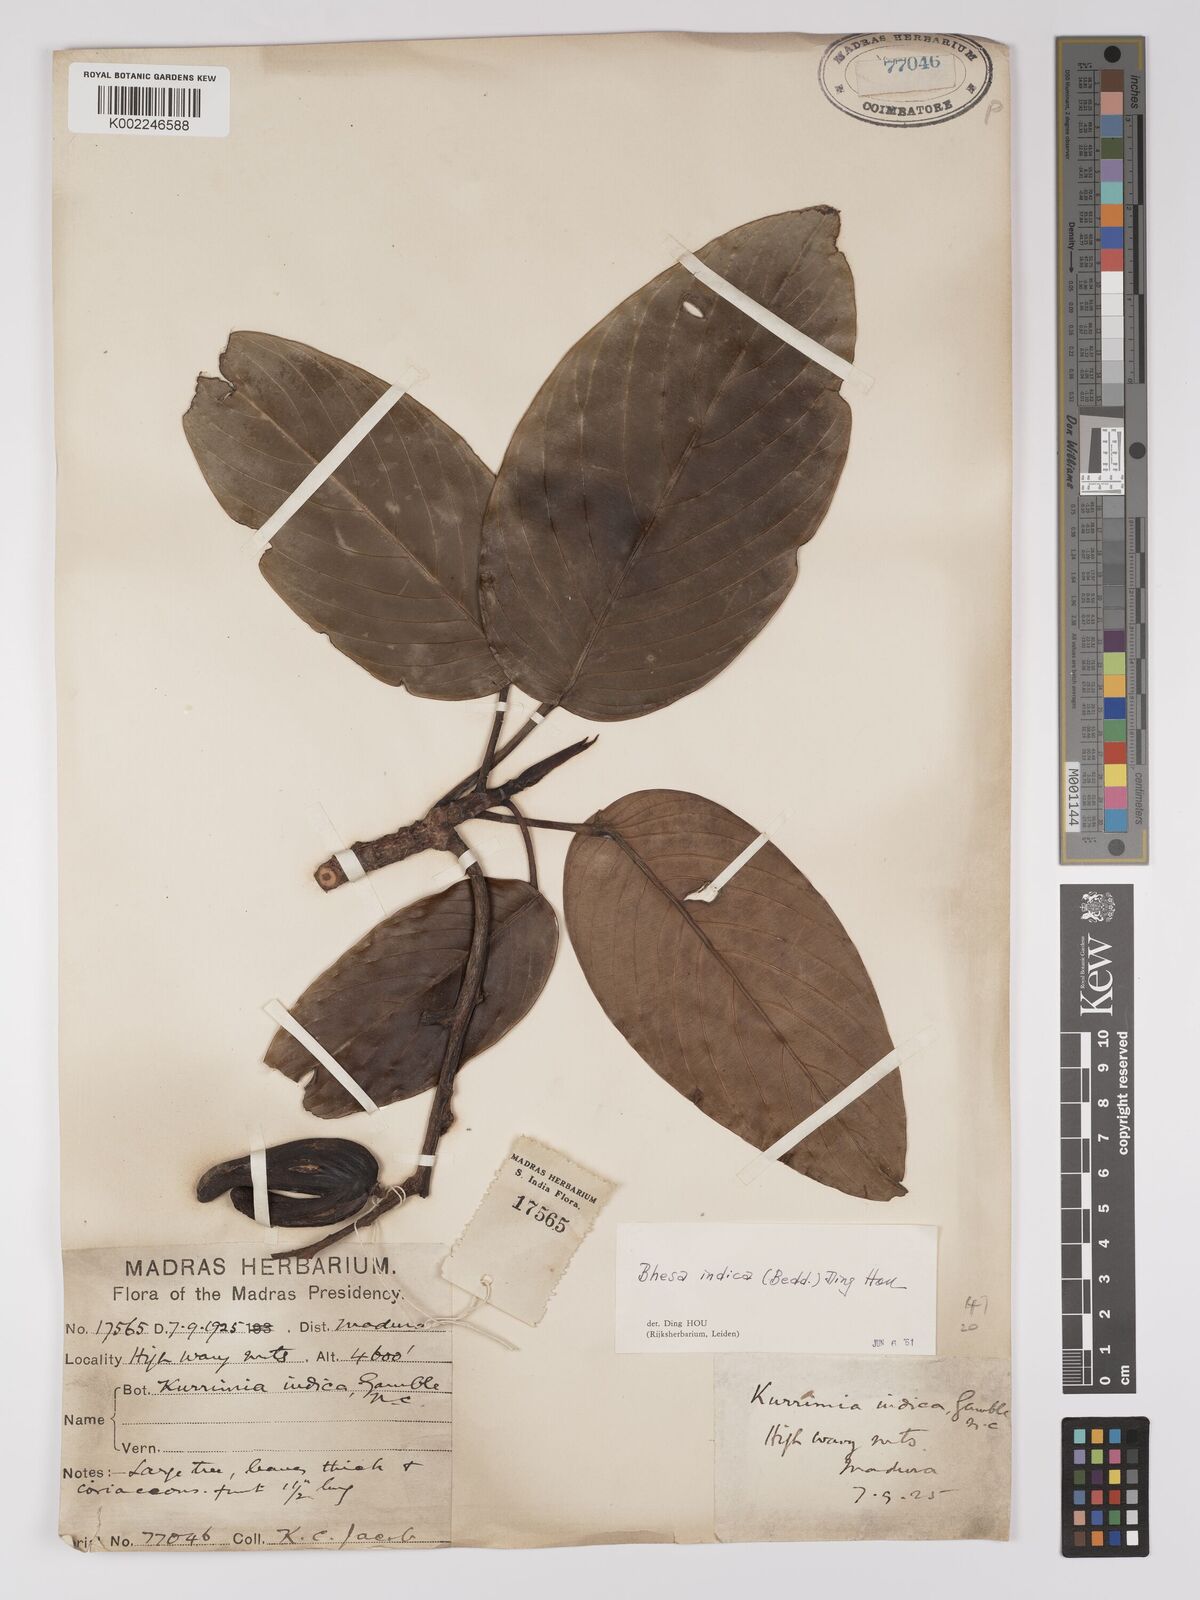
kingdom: Plantae
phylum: Tracheophyta
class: Magnoliopsida
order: Malpighiales
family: Centroplacaceae
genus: Bhesa
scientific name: Bhesa indica
